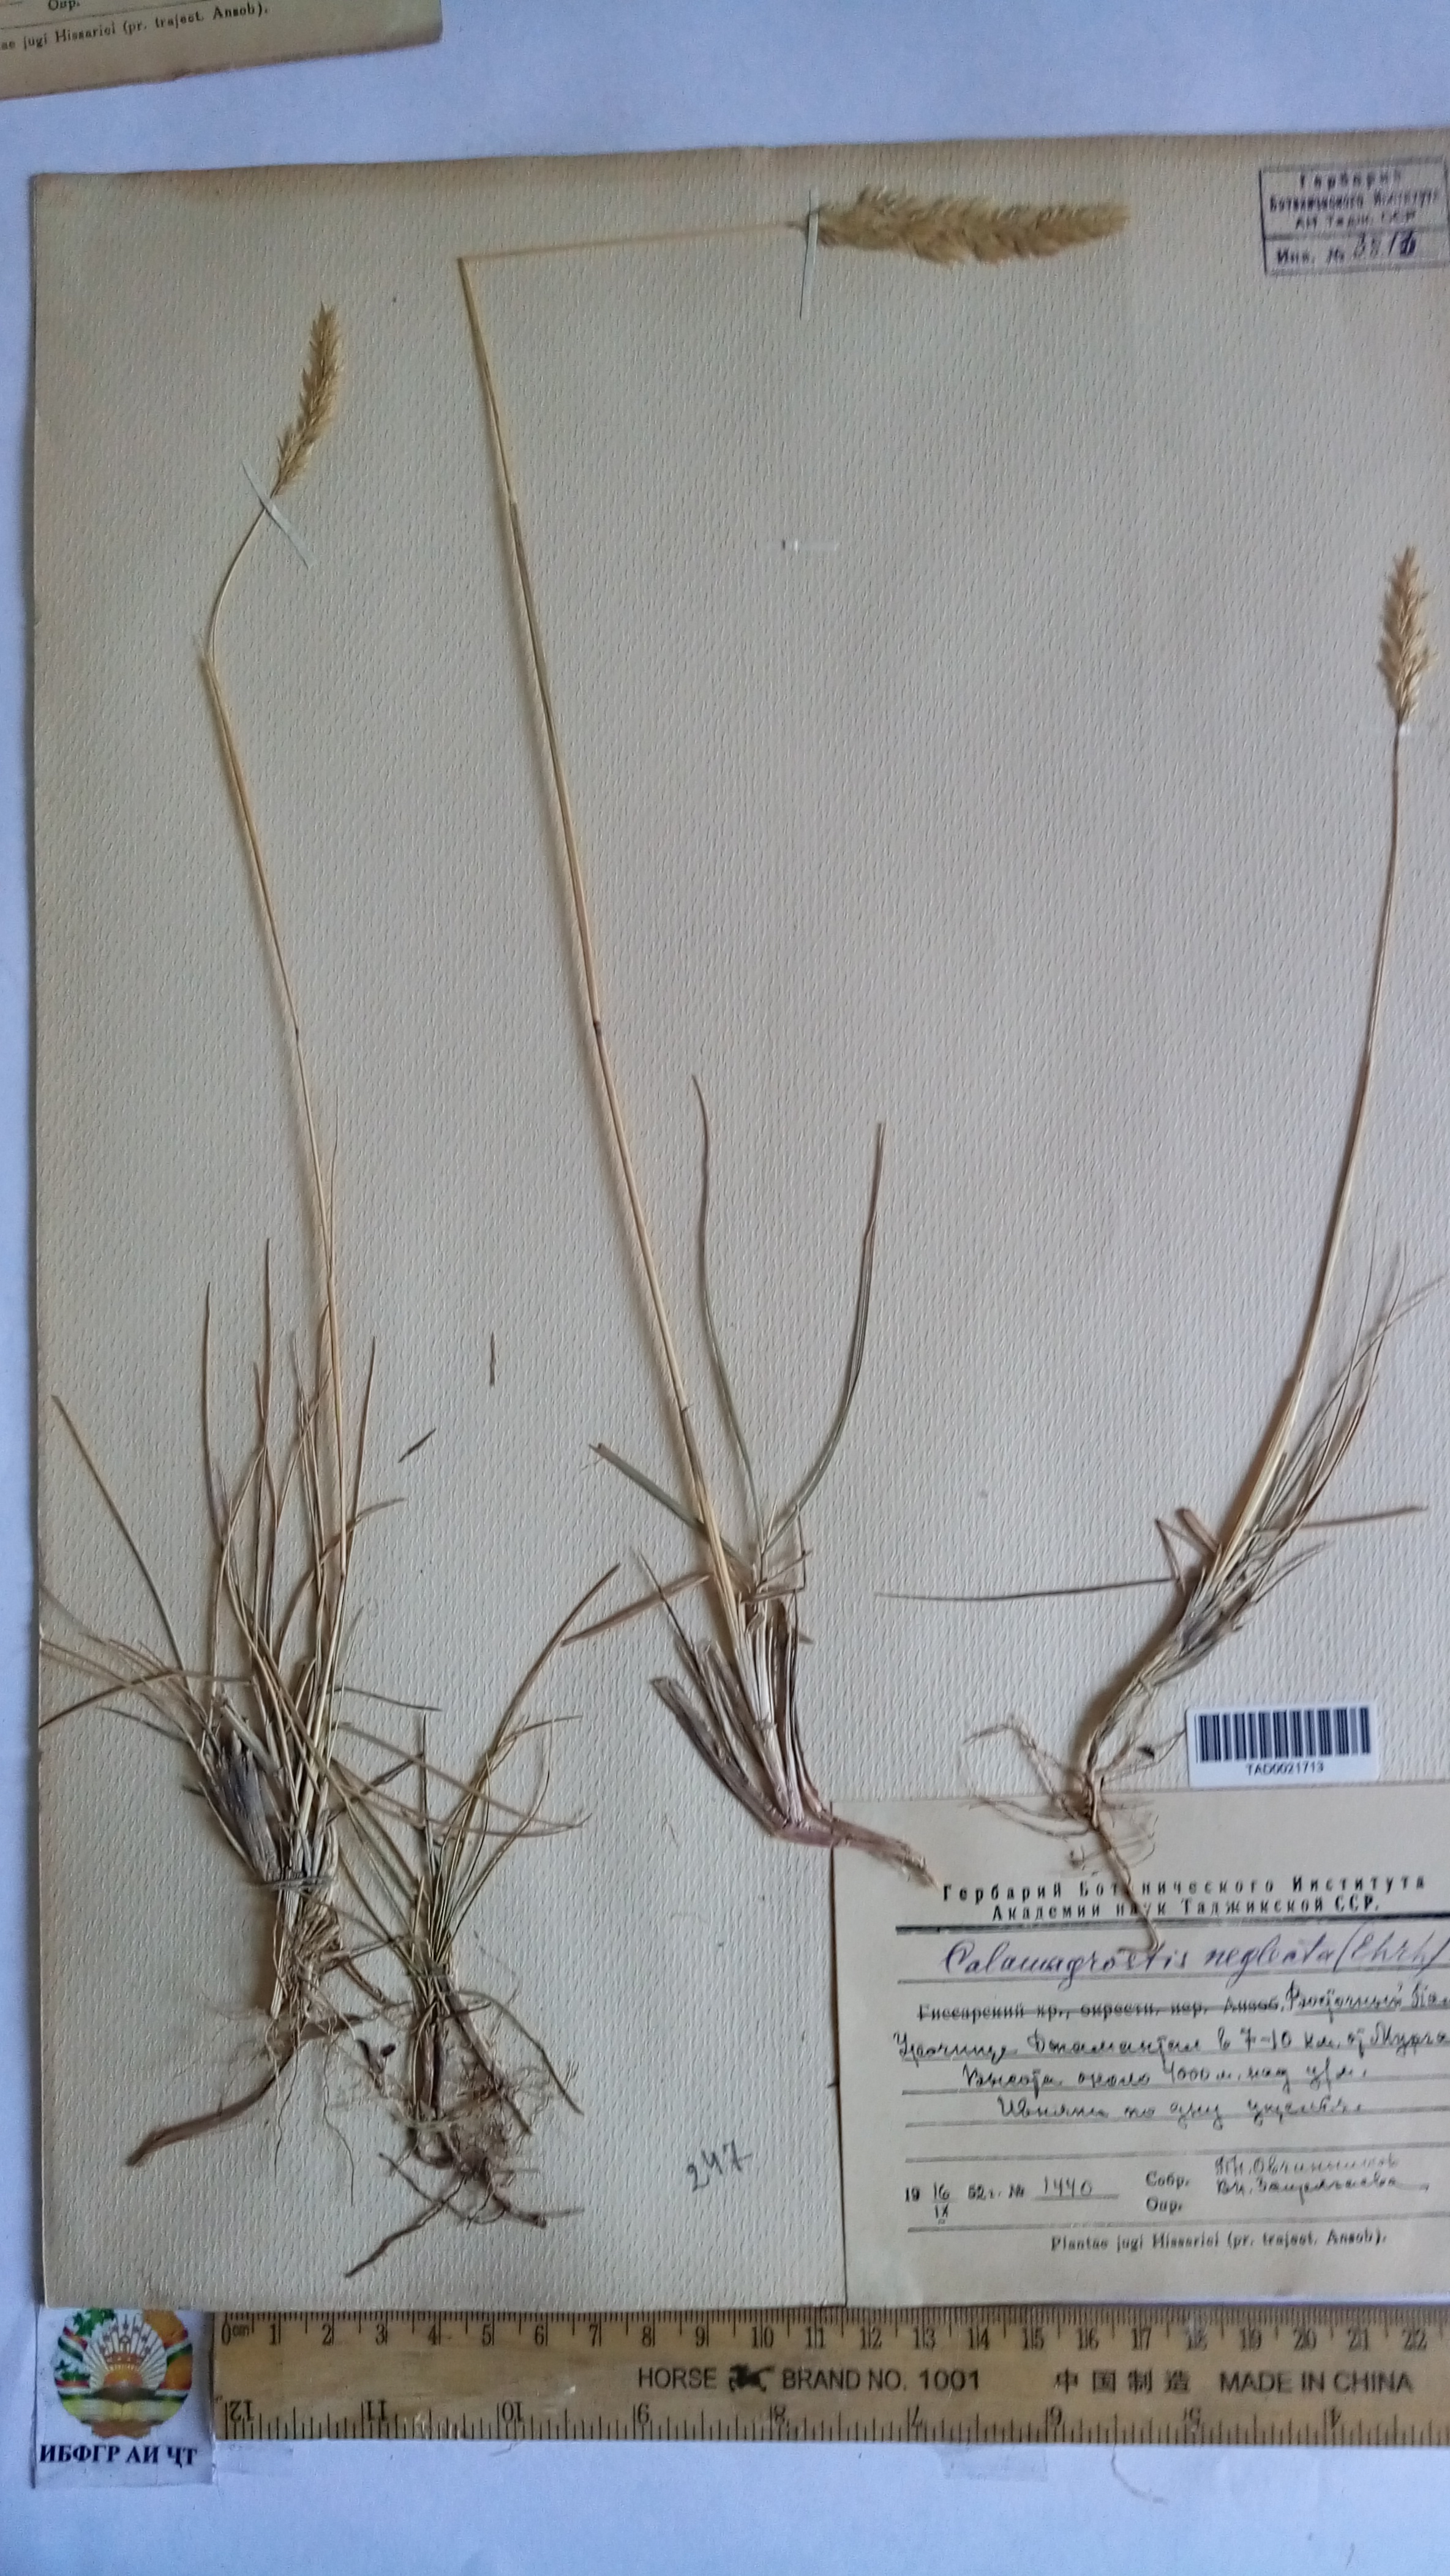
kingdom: Plantae
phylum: Tracheophyta
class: Liliopsida
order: Poales
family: Poaceae
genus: Achnatherum
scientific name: Achnatherum calamagrostis
